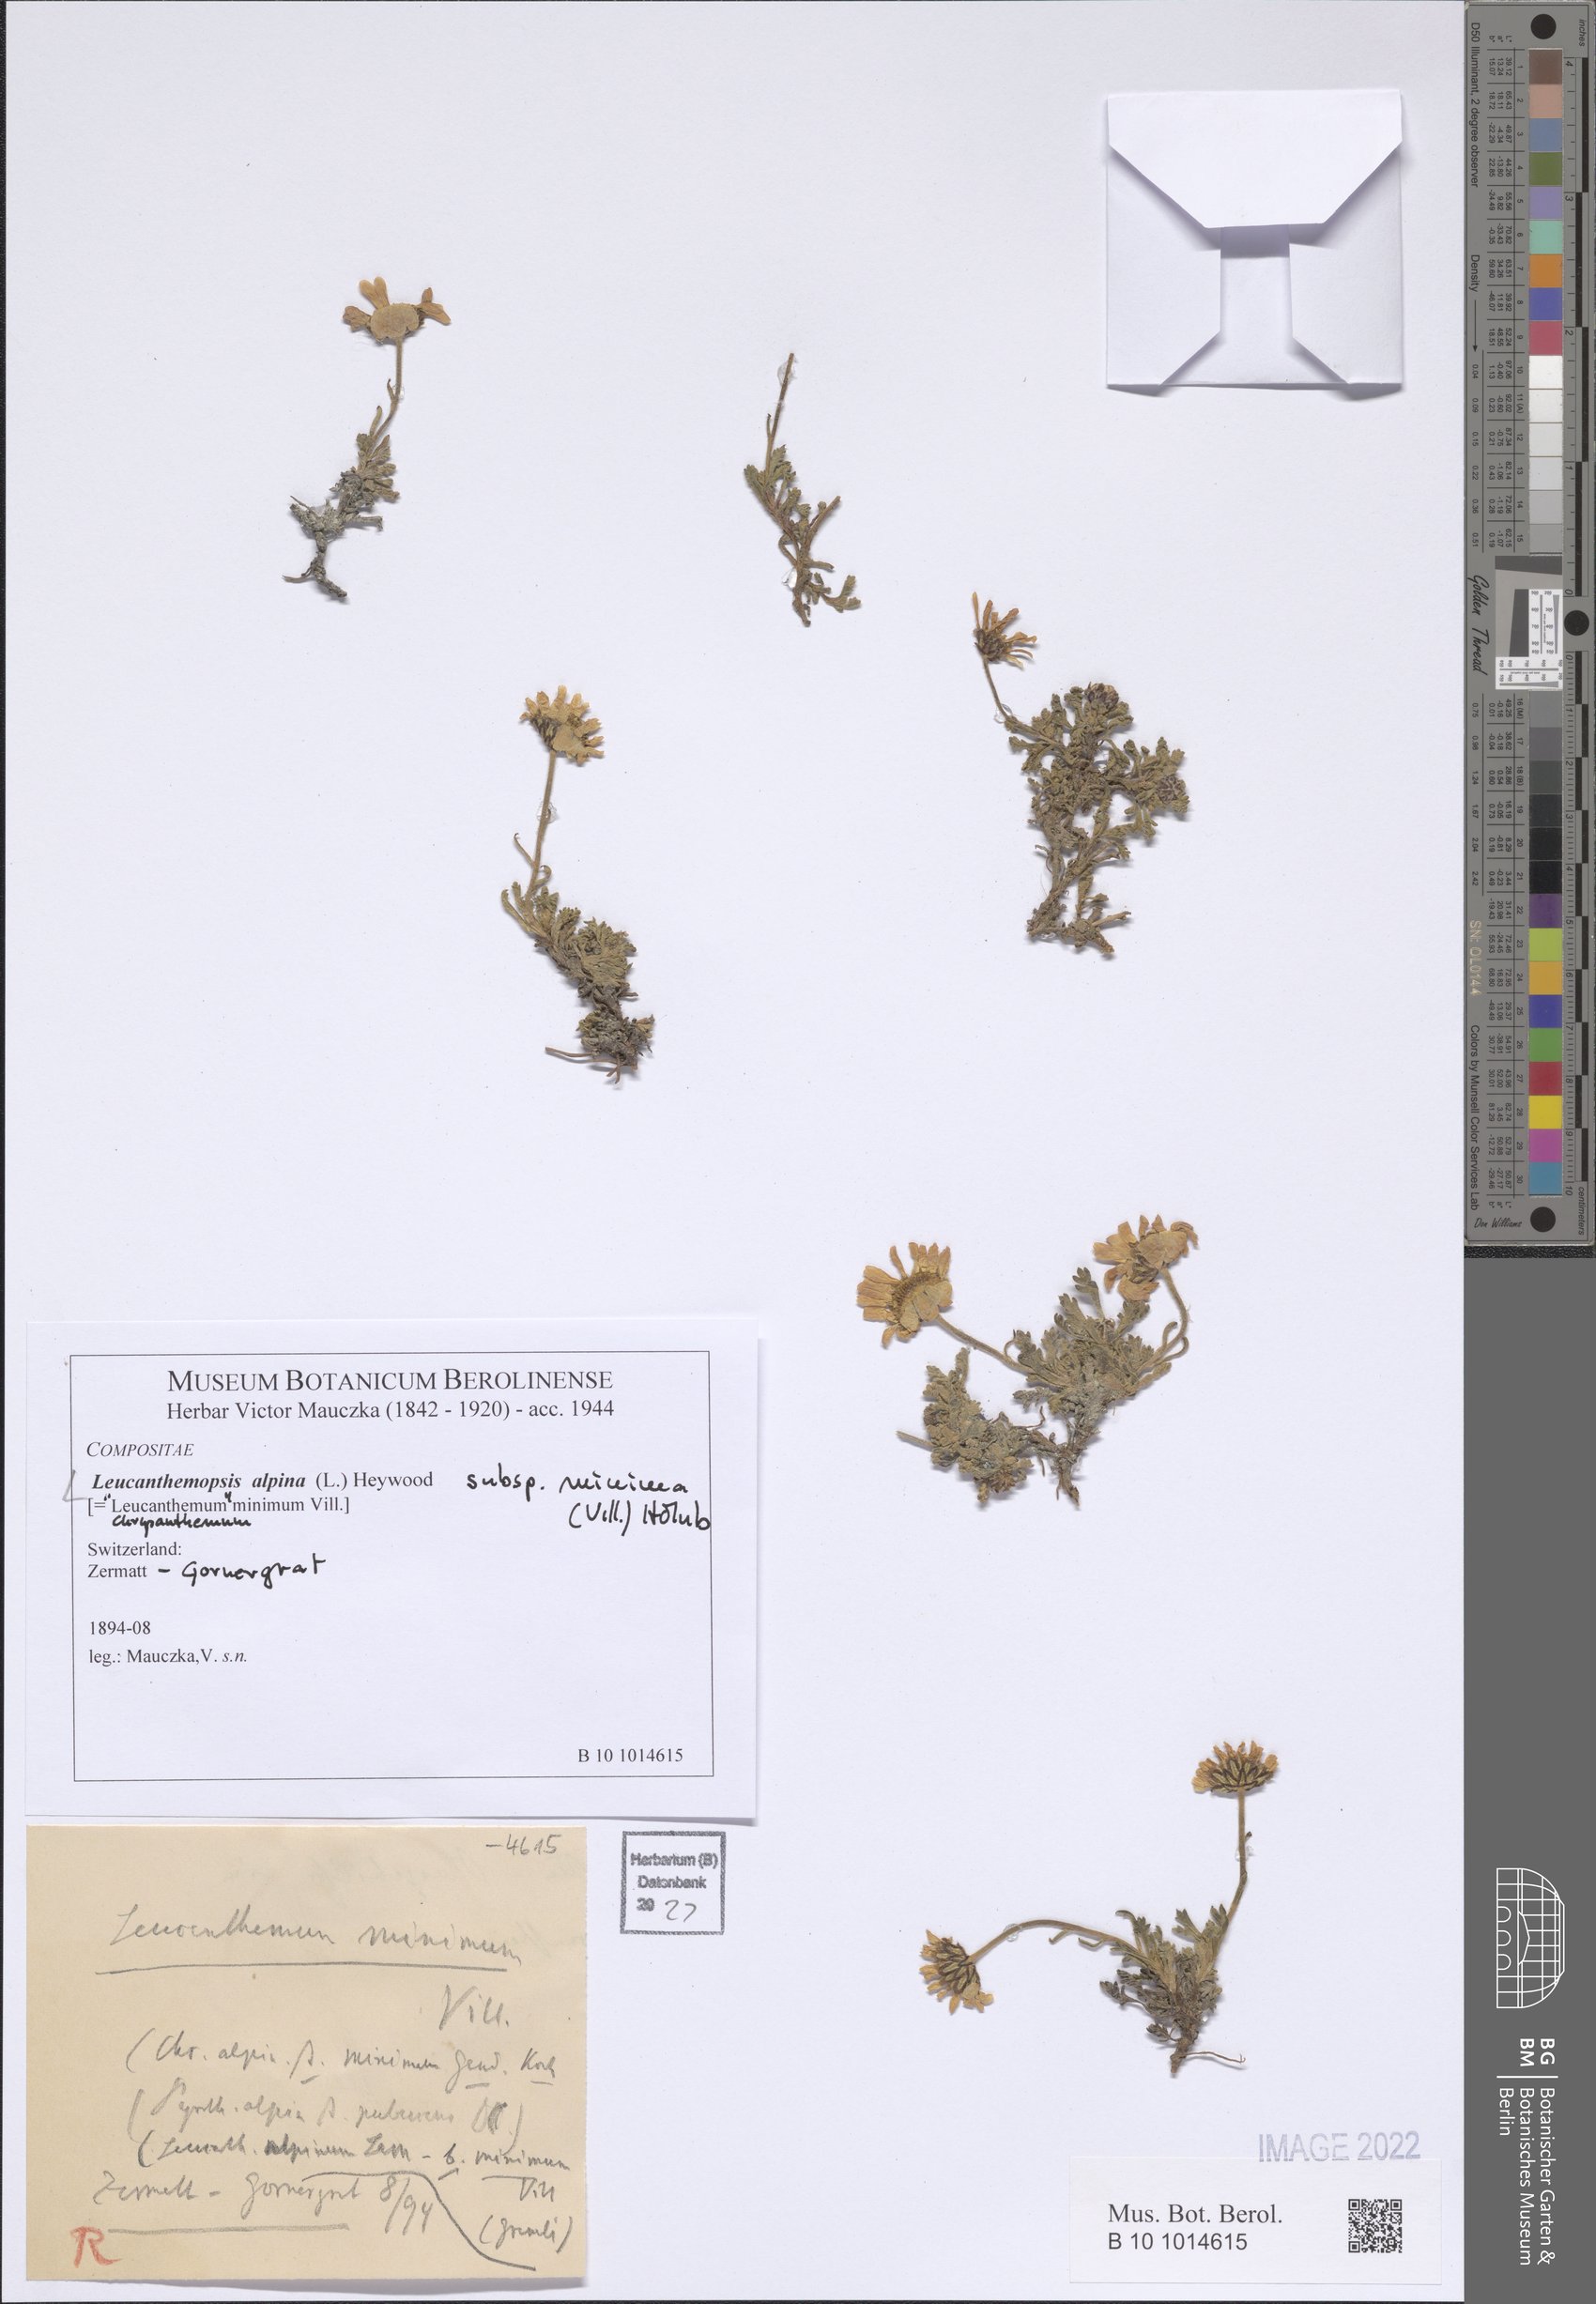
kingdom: Plantae
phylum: Tracheophyta
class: Magnoliopsida
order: Asterales
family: Asteraceae
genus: Leucanthemopsis
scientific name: Leucanthemopsis alpina
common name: Alpine moon daisy
